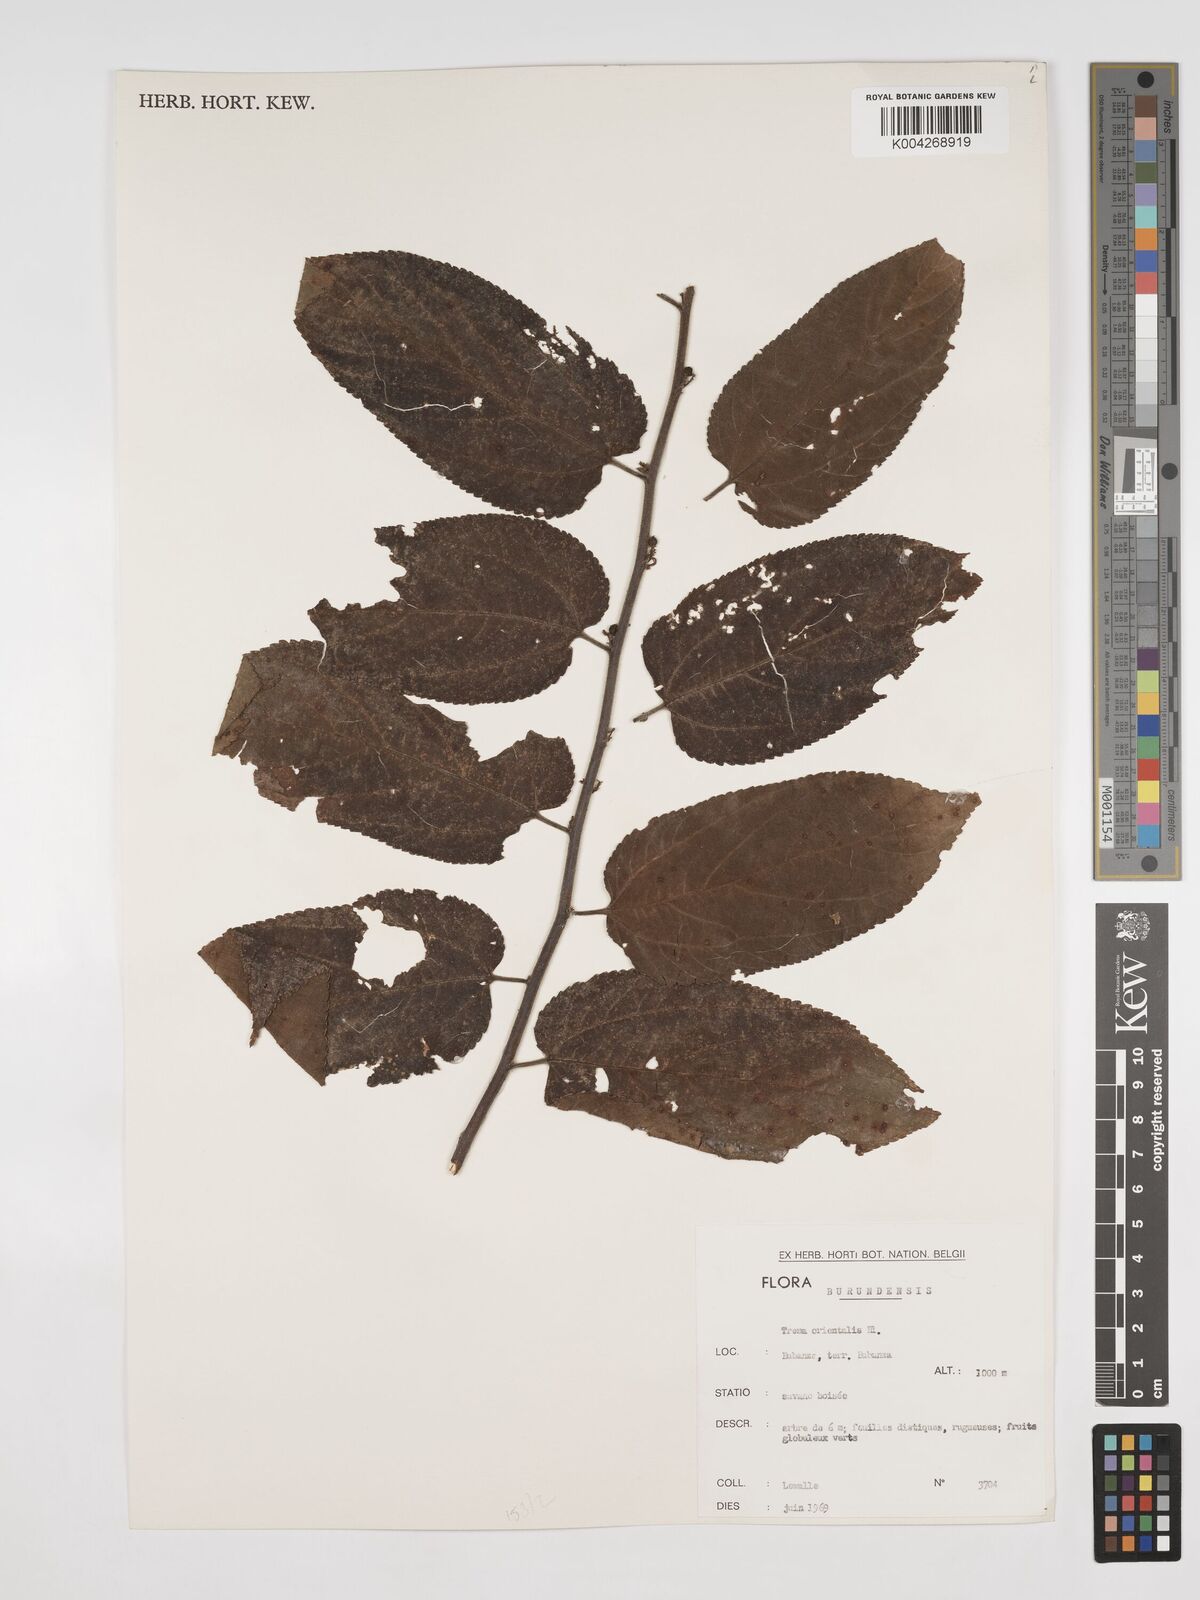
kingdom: Plantae
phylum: Tracheophyta
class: Magnoliopsida
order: Rosales
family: Cannabaceae
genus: Trema
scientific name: Trema orientale
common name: Indian charcoal tree
